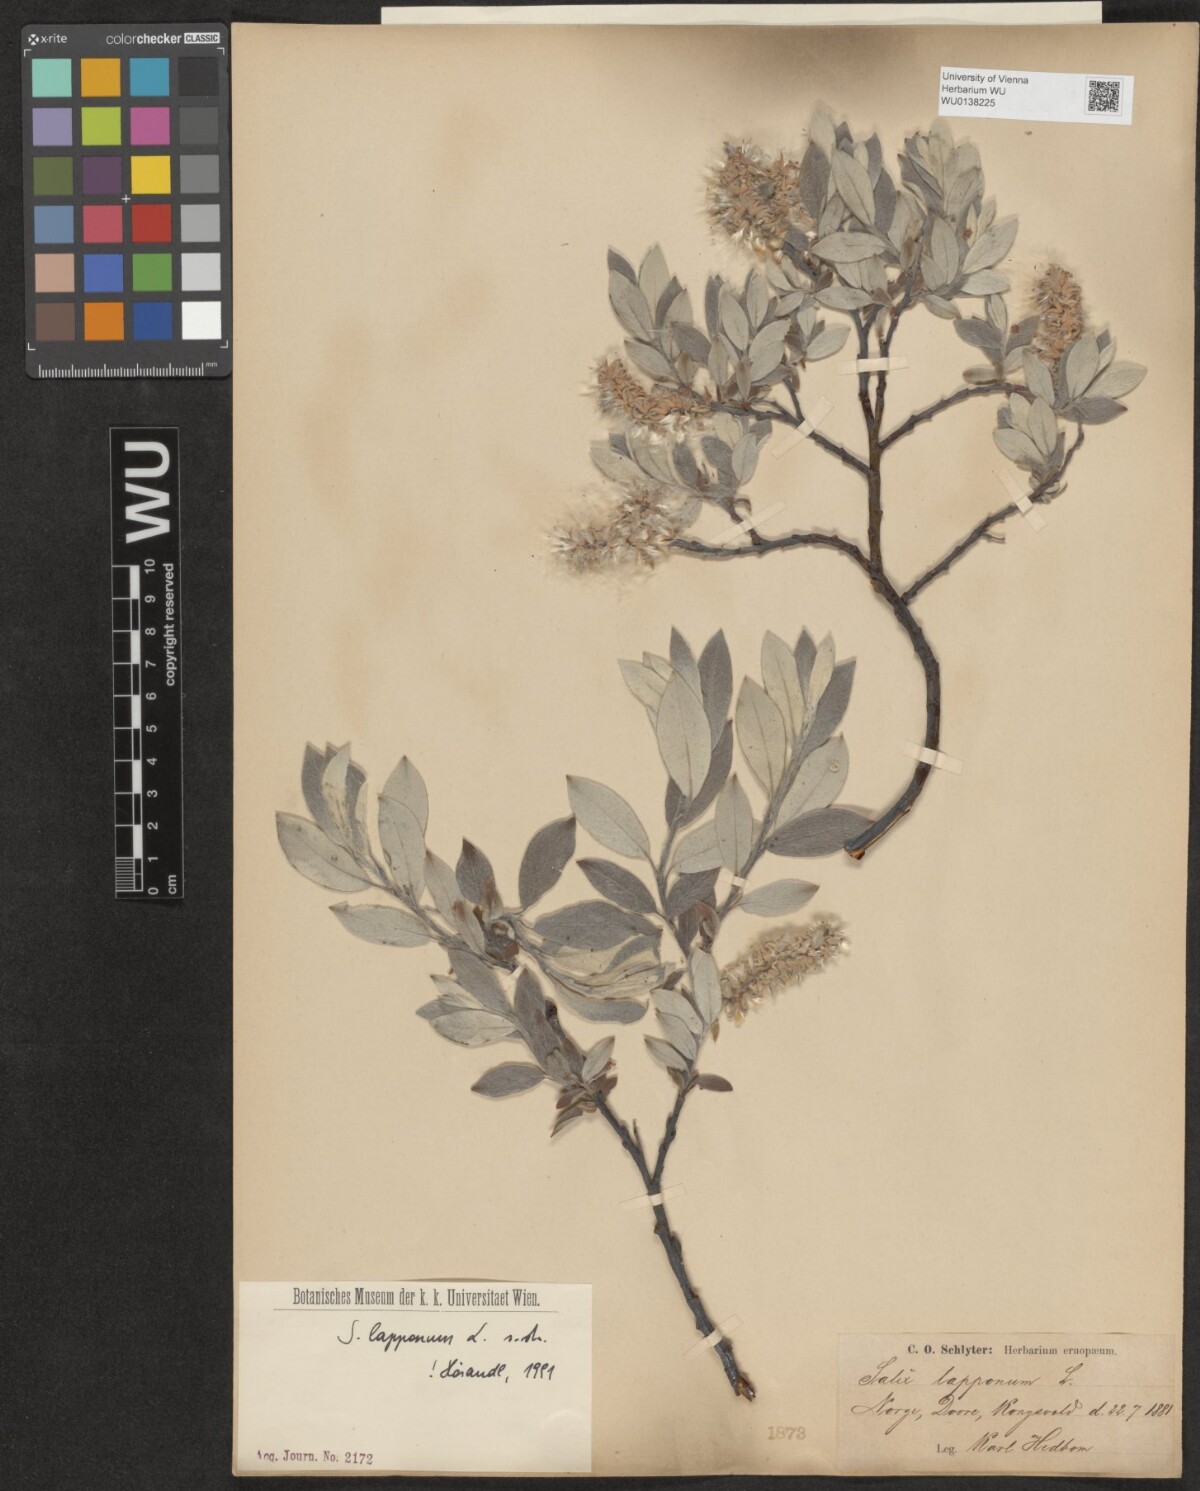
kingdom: Plantae
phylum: Tracheophyta
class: Magnoliopsida
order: Malpighiales
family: Salicaceae
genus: Salix
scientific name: Salix lapponum
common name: Downy willow
